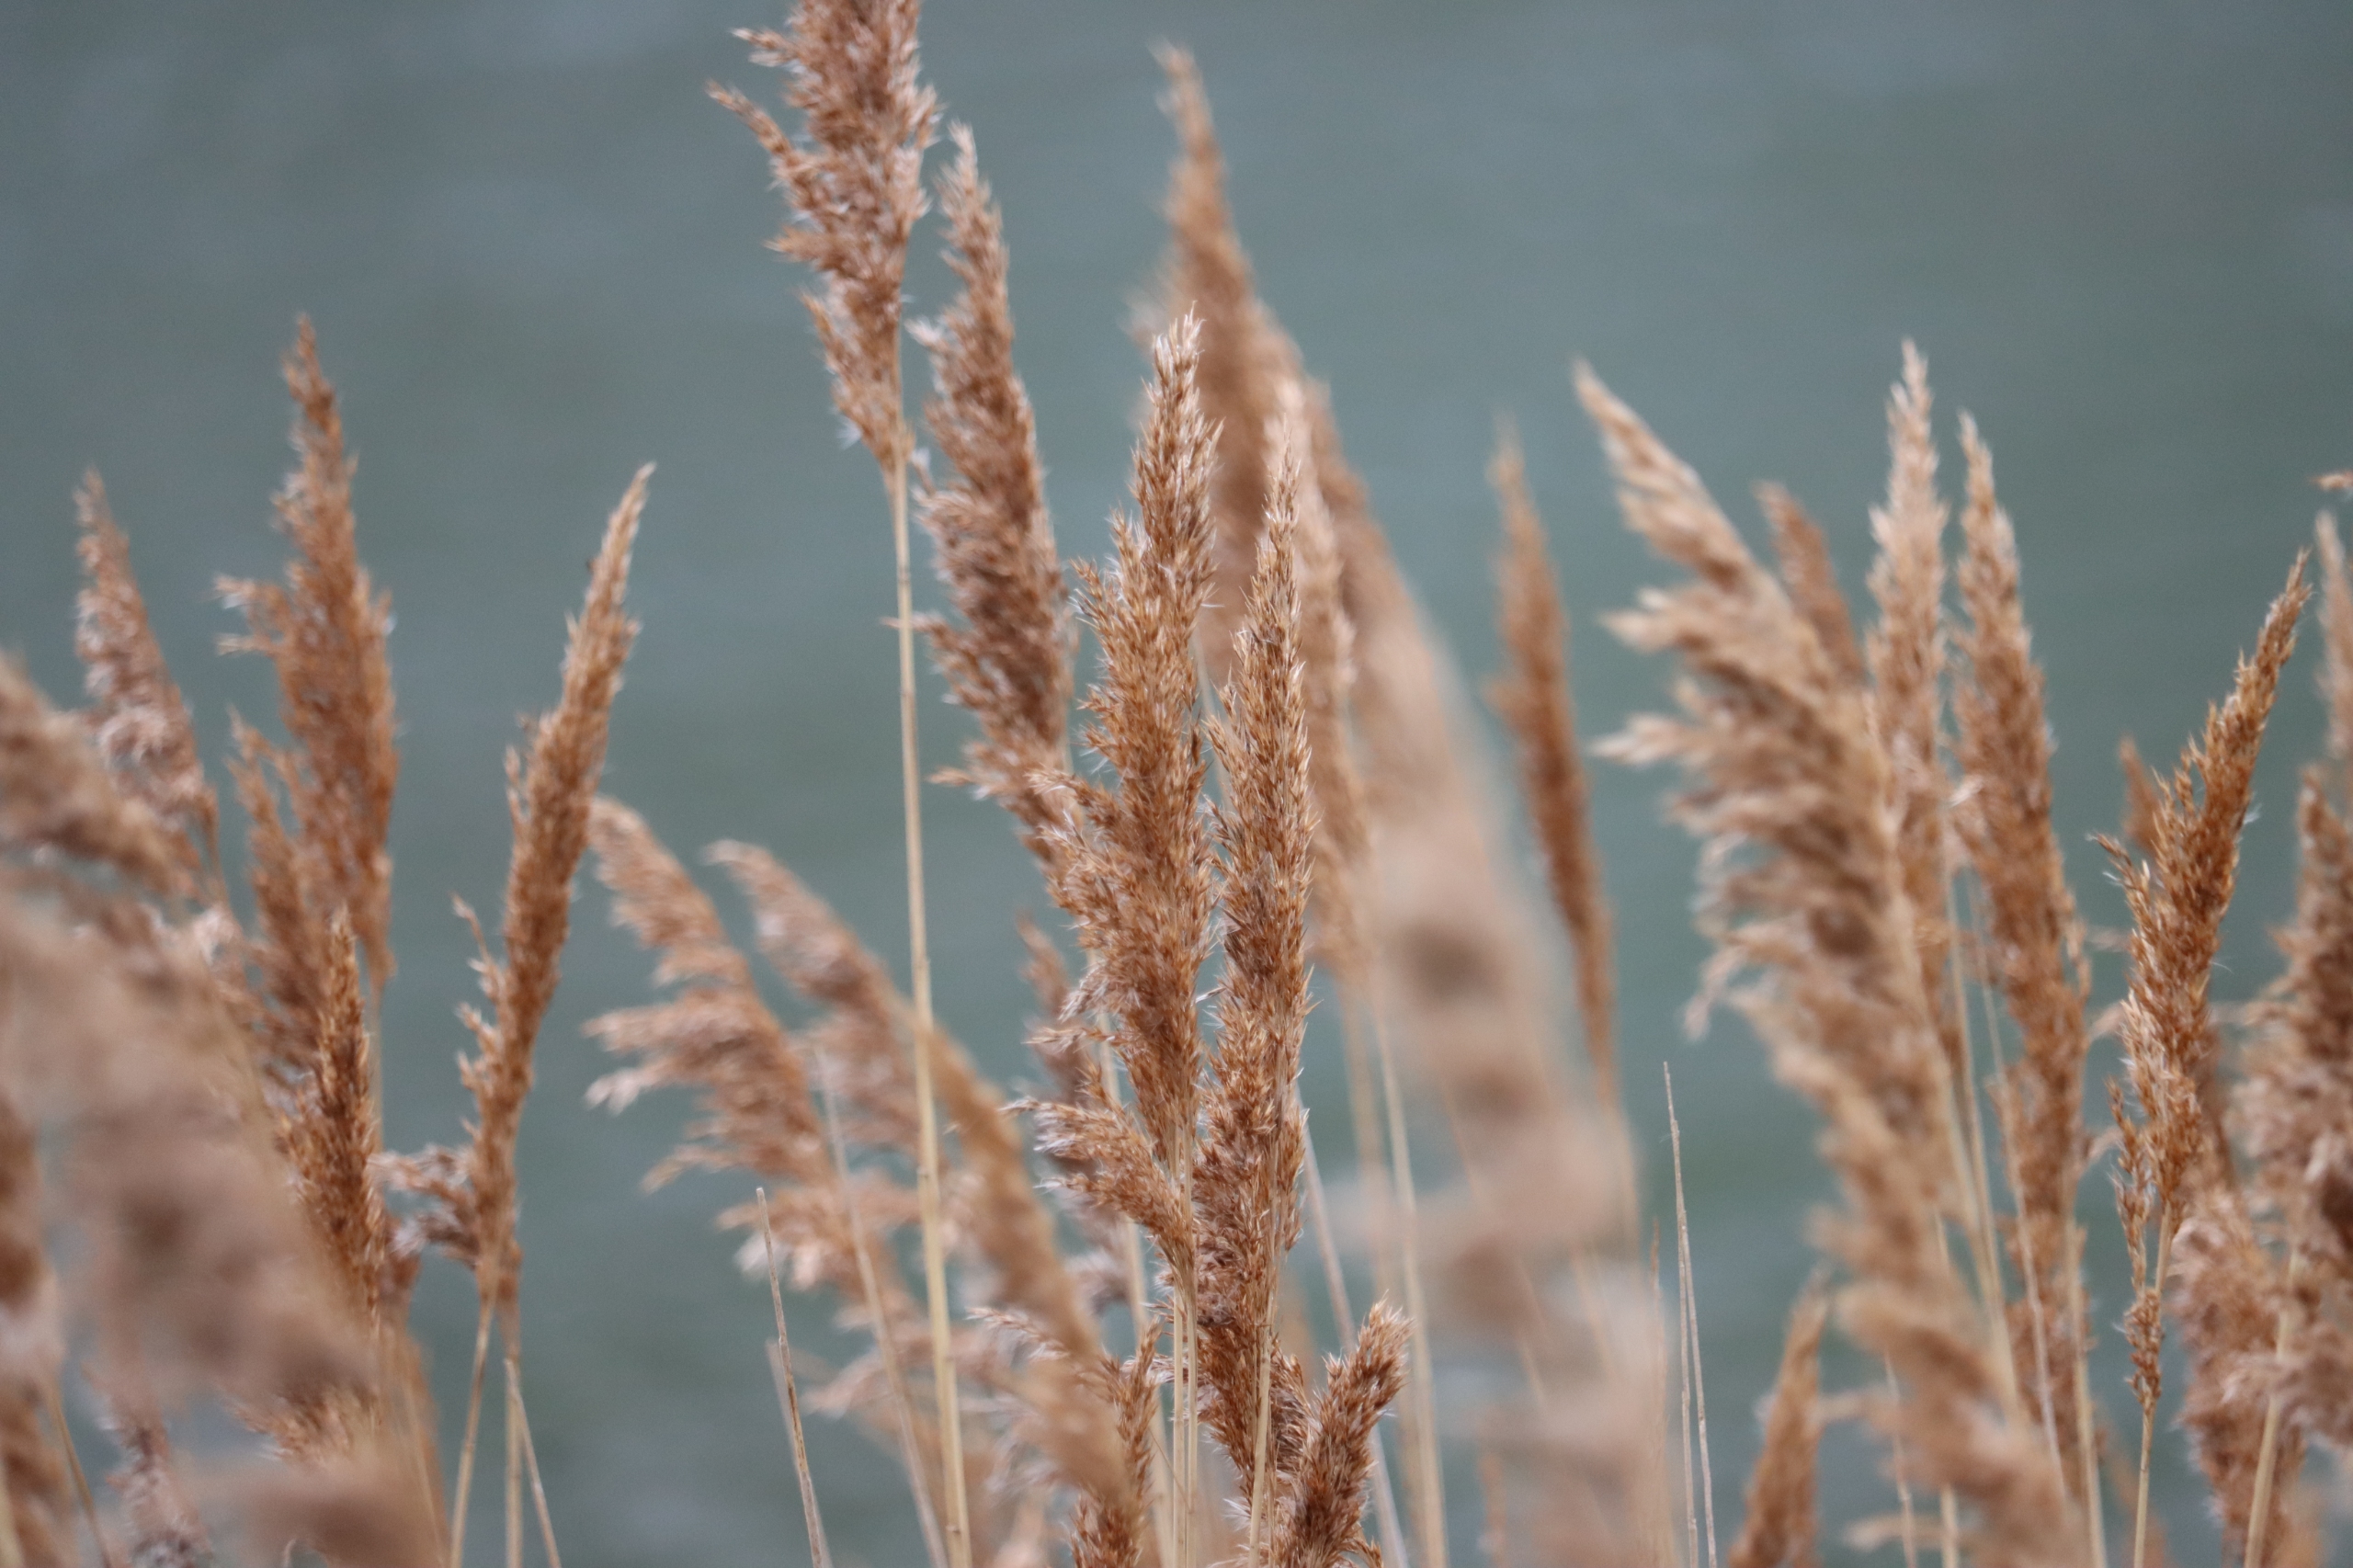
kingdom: Plantae
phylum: Tracheophyta
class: Liliopsida
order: Poales
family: Poaceae
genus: Phragmites
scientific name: Phragmites australis
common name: Tagrør
